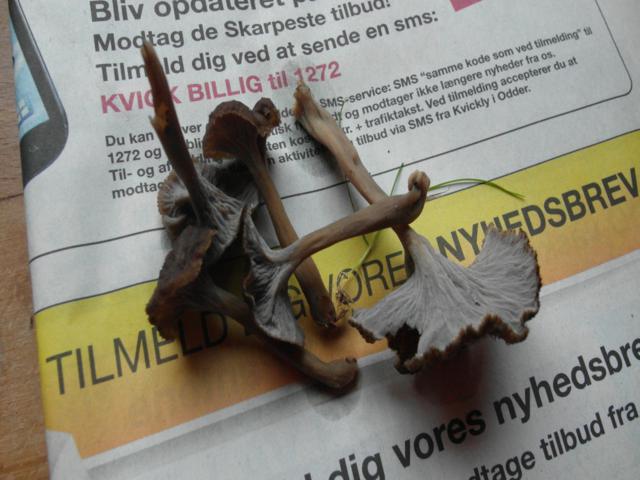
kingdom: Fungi
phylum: Basidiomycota
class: Agaricomycetes
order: Cantharellales
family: Hydnaceae
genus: Craterellus
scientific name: Craterellus undulatus
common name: liden kantarel
